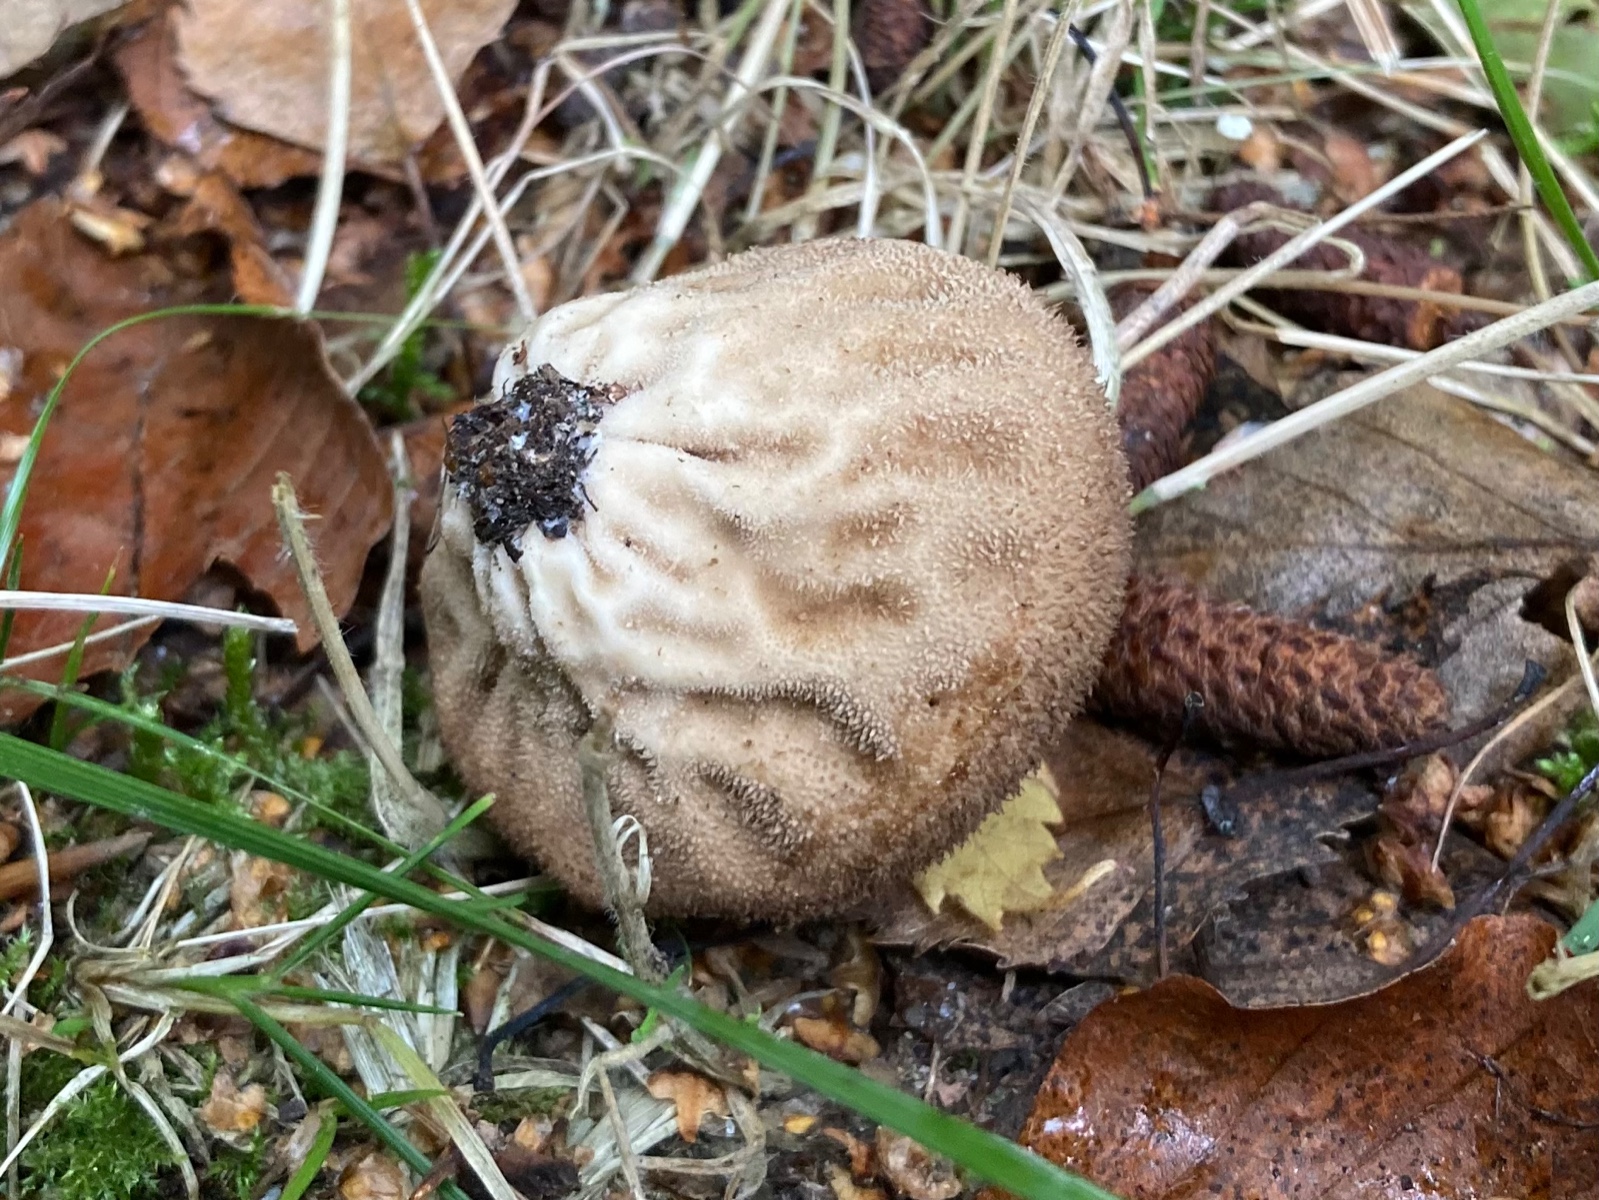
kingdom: Fungi
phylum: Basidiomycota
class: Agaricomycetes
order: Agaricales
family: Lycoperdaceae
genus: Lycoperdon
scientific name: Lycoperdon nigrescens
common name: sortagtig støvbold
